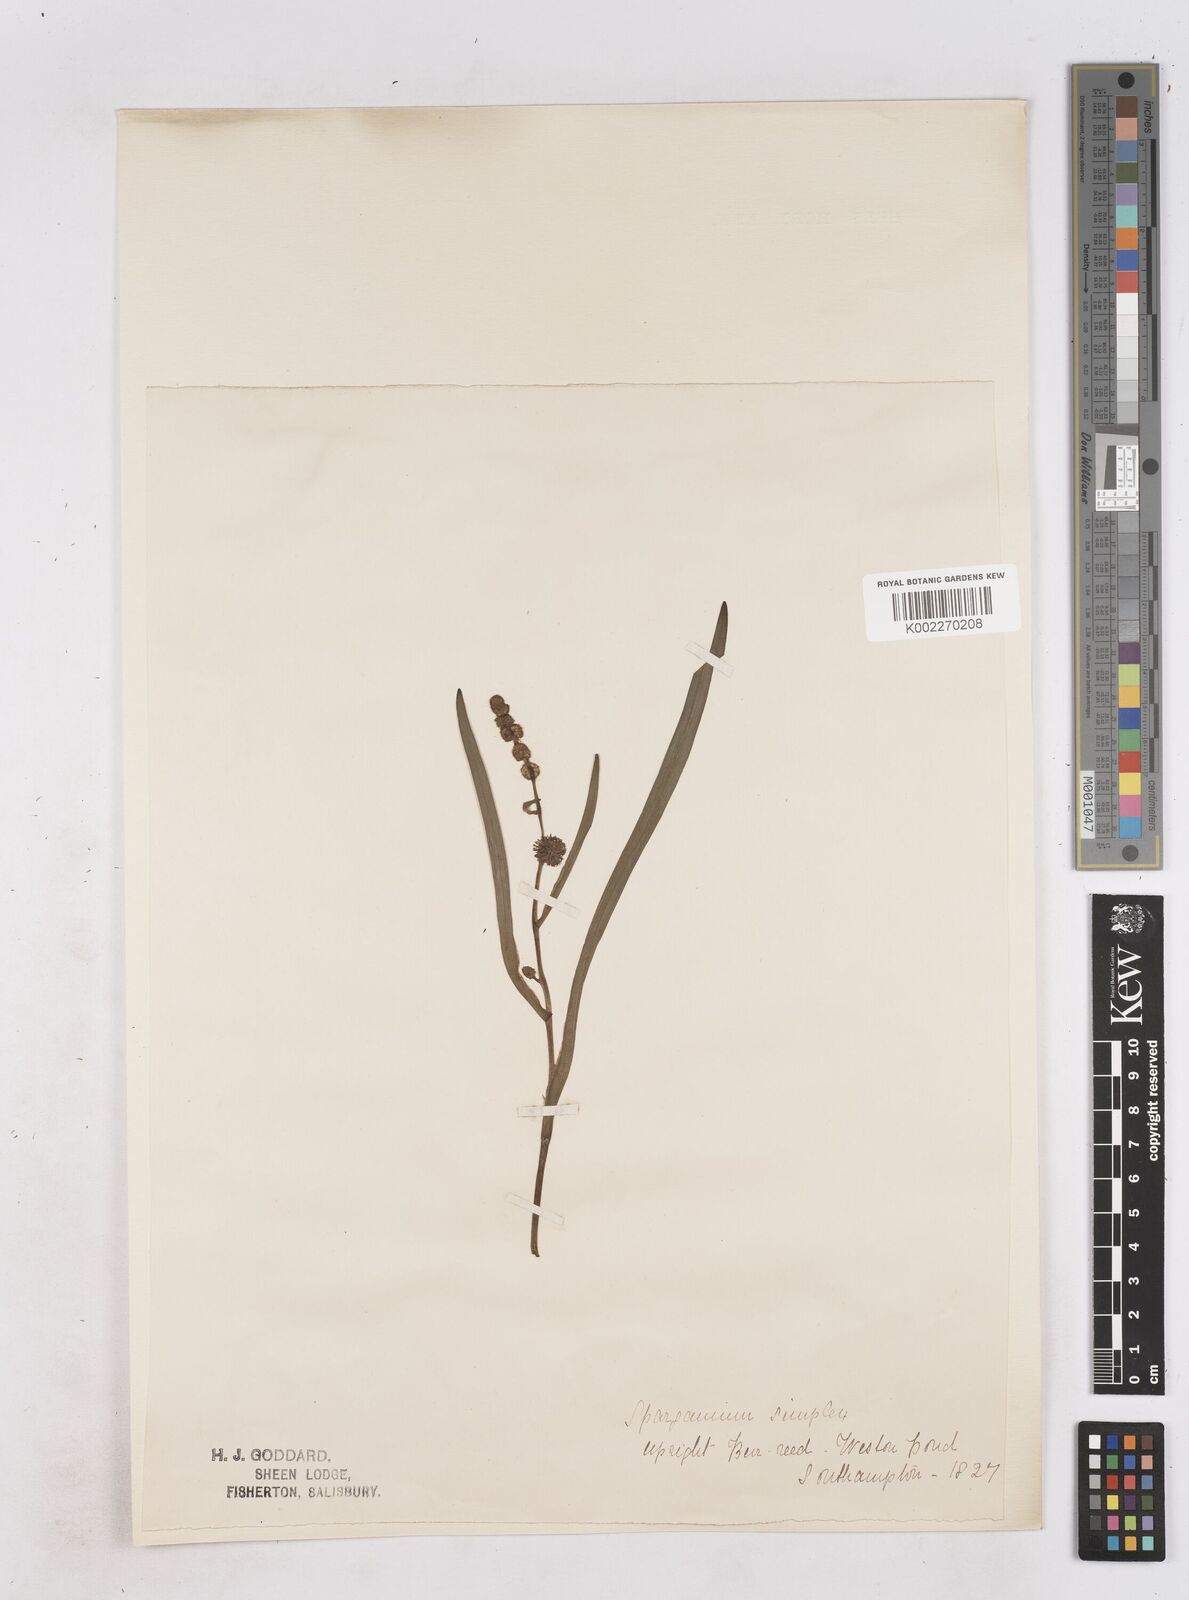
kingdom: Plantae
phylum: Tracheophyta
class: Liliopsida
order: Poales
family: Typhaceae
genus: Sparganium
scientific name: Sparganium emersum
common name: Unbranched bur-reed
